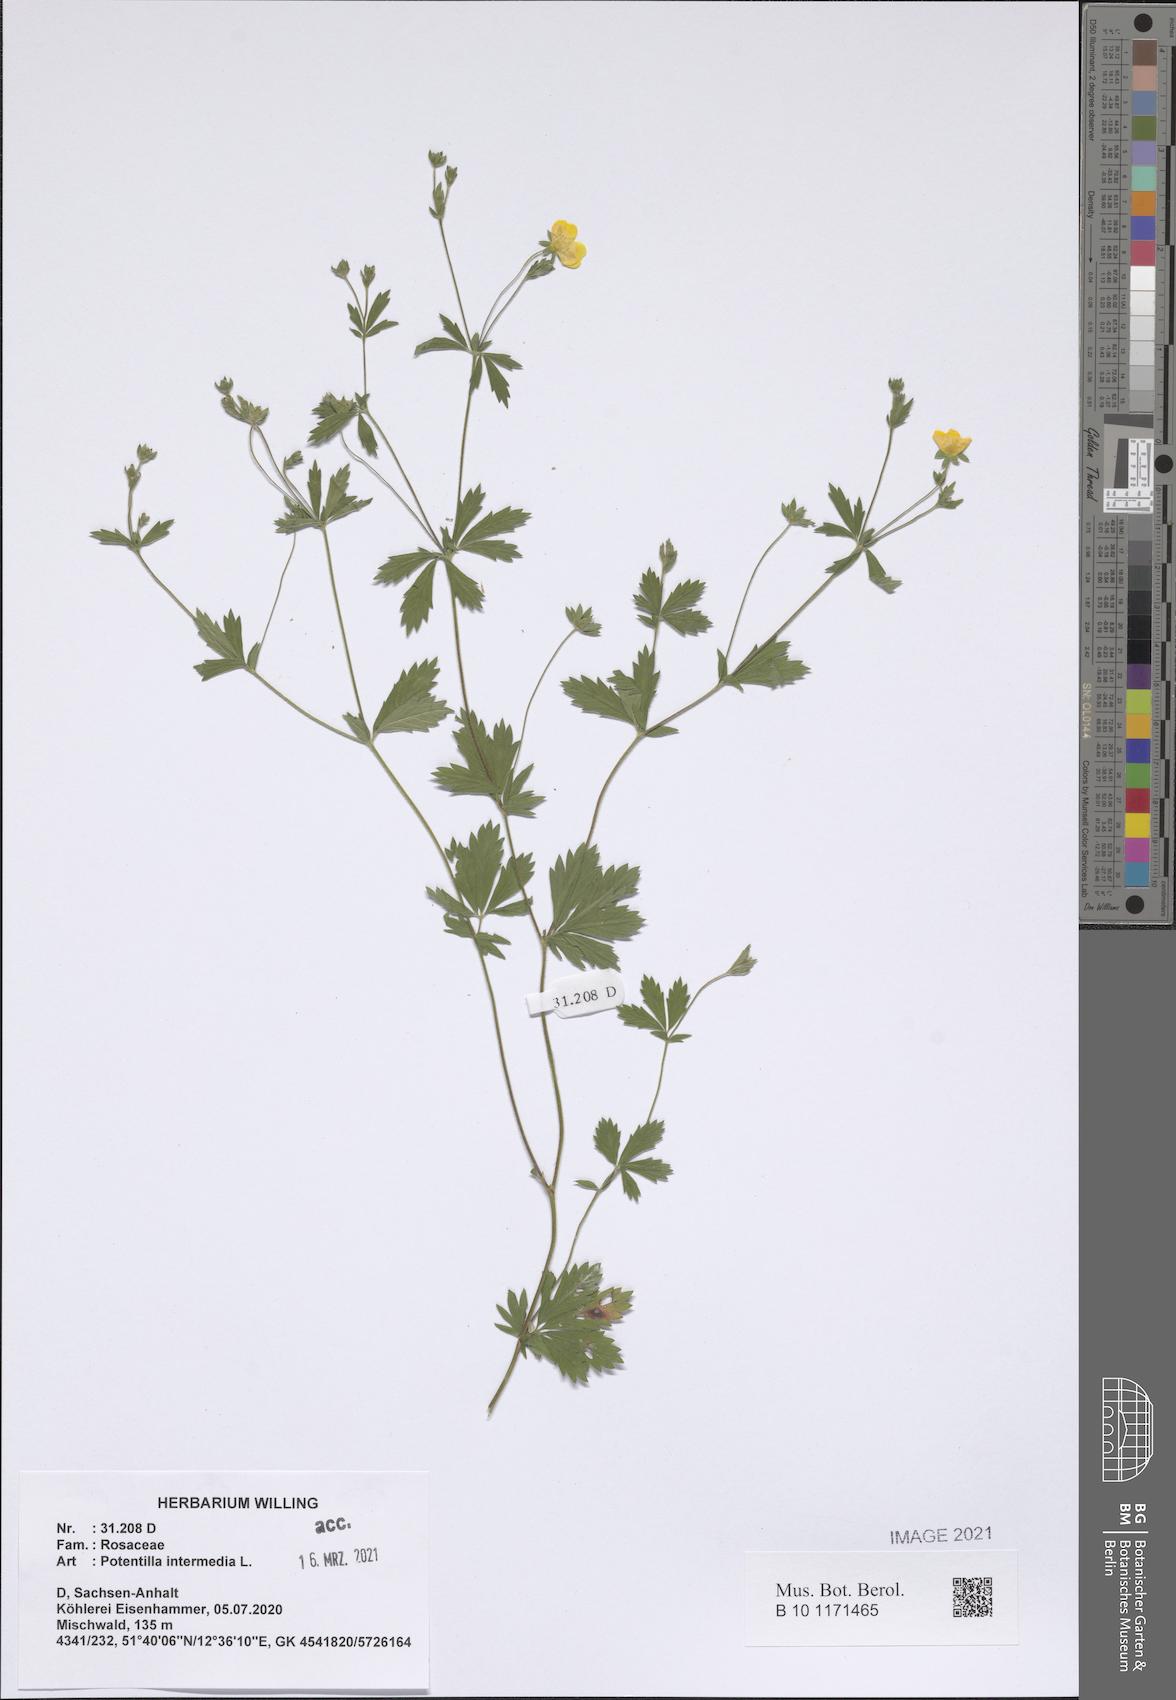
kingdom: Plantae
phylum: Tracheophyta
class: Magnoliopsida
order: Rosales
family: Rosaceae
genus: Potentilla
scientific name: Potentilla intermedia
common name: Downy cinquefoil
